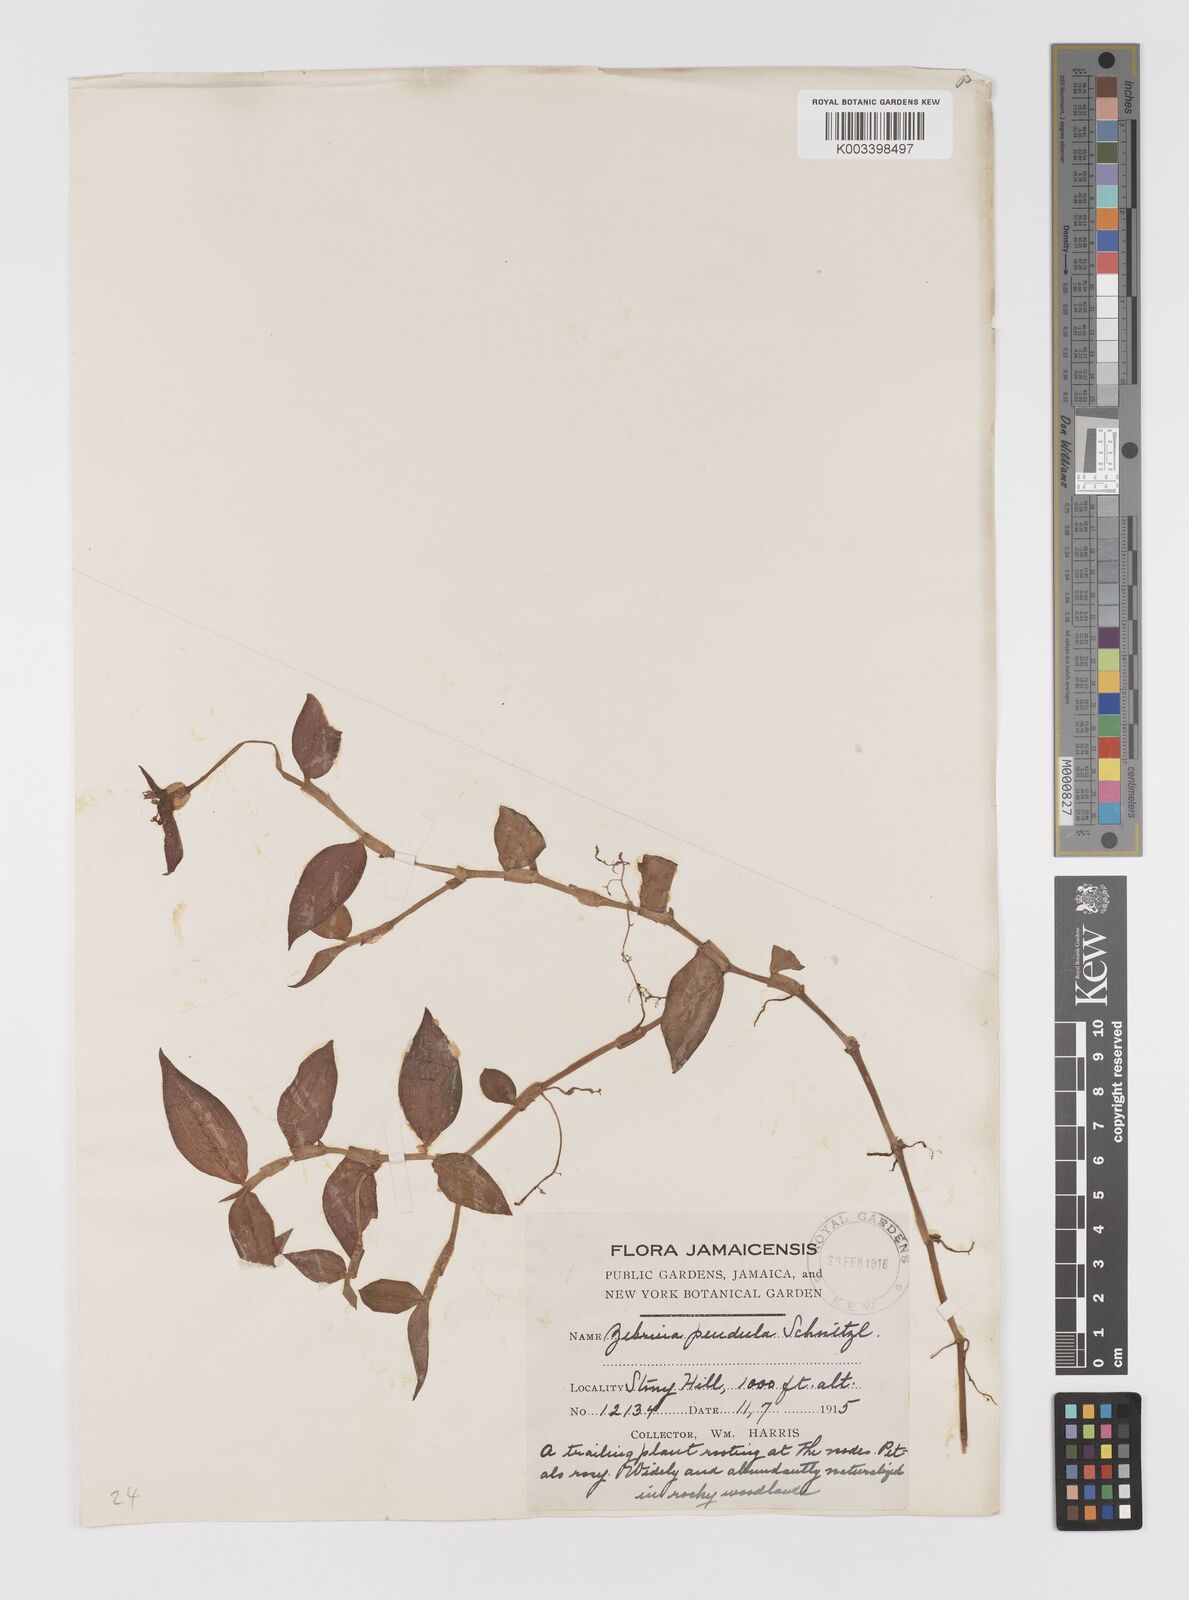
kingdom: Plantae
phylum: Tracheophyta
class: Liliopsida
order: Commelinales
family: Commelinaceae
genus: Tradescantia
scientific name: Tradescantia zebrina
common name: Inchplant
